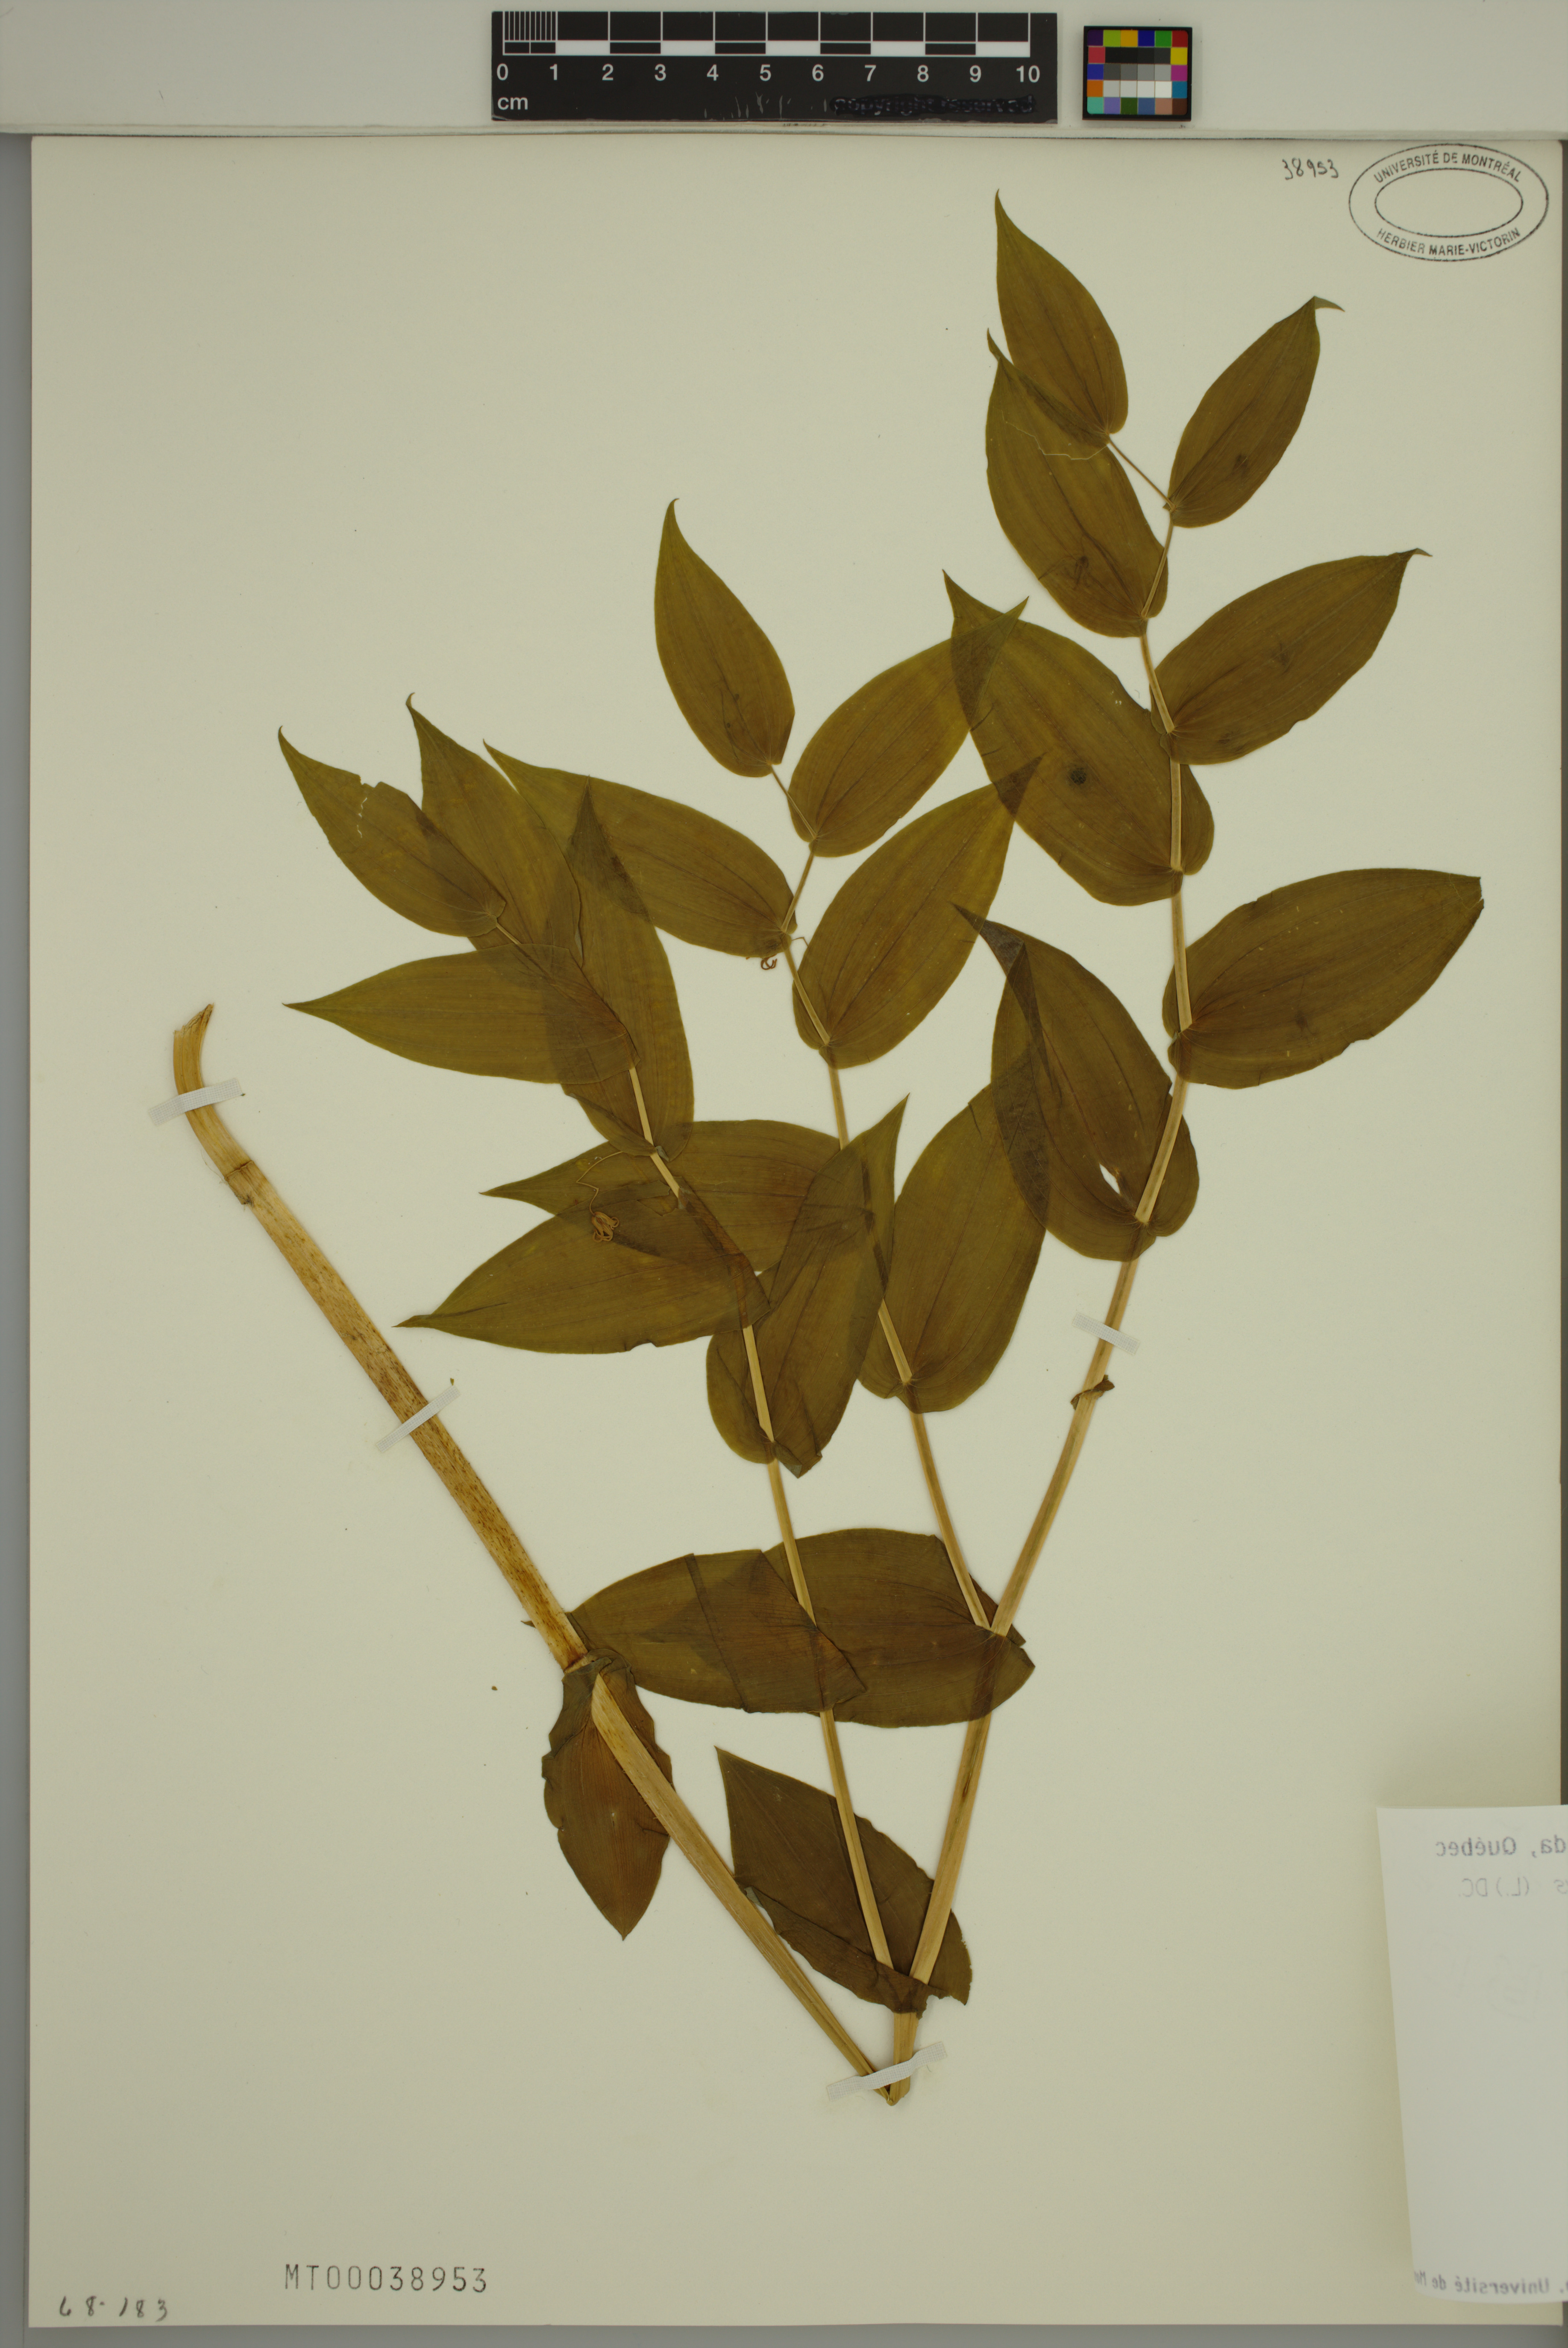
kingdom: Plantae
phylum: Tracheophyta
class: Liliopsida
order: Liliales
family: Liliaceae
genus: Streptopus
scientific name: Streptopus amplexifolius
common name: Clasp twisted stalk
